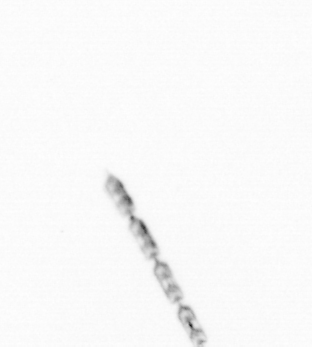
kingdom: Chromista
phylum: Ochrophyta
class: Bacillariophyceae
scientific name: Bacillariophyceae
